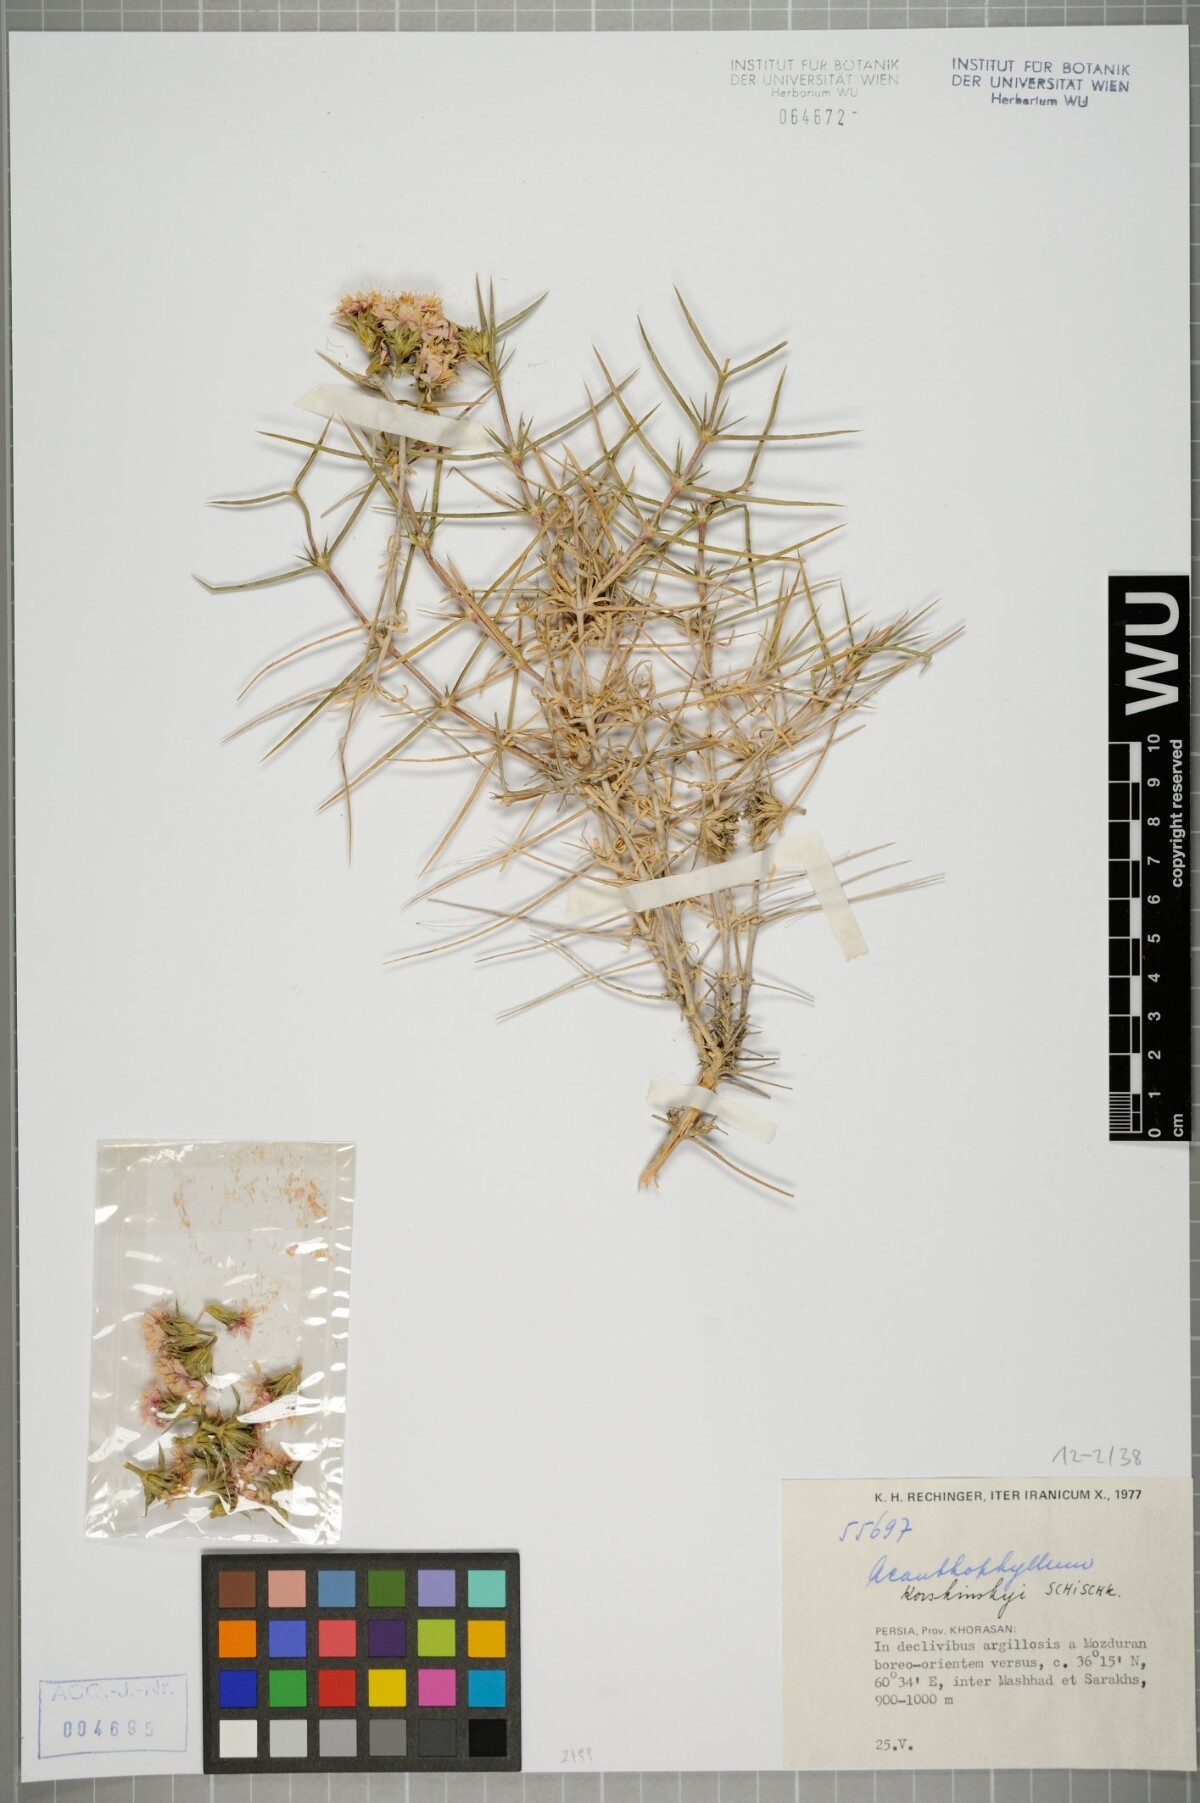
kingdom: Plantae
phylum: Tracheophyta
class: Magnoliopsida
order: Caryophyllales
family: Caryophyllaceae
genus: Acanthophyllum
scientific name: Acanthophyllum korshinskyi
